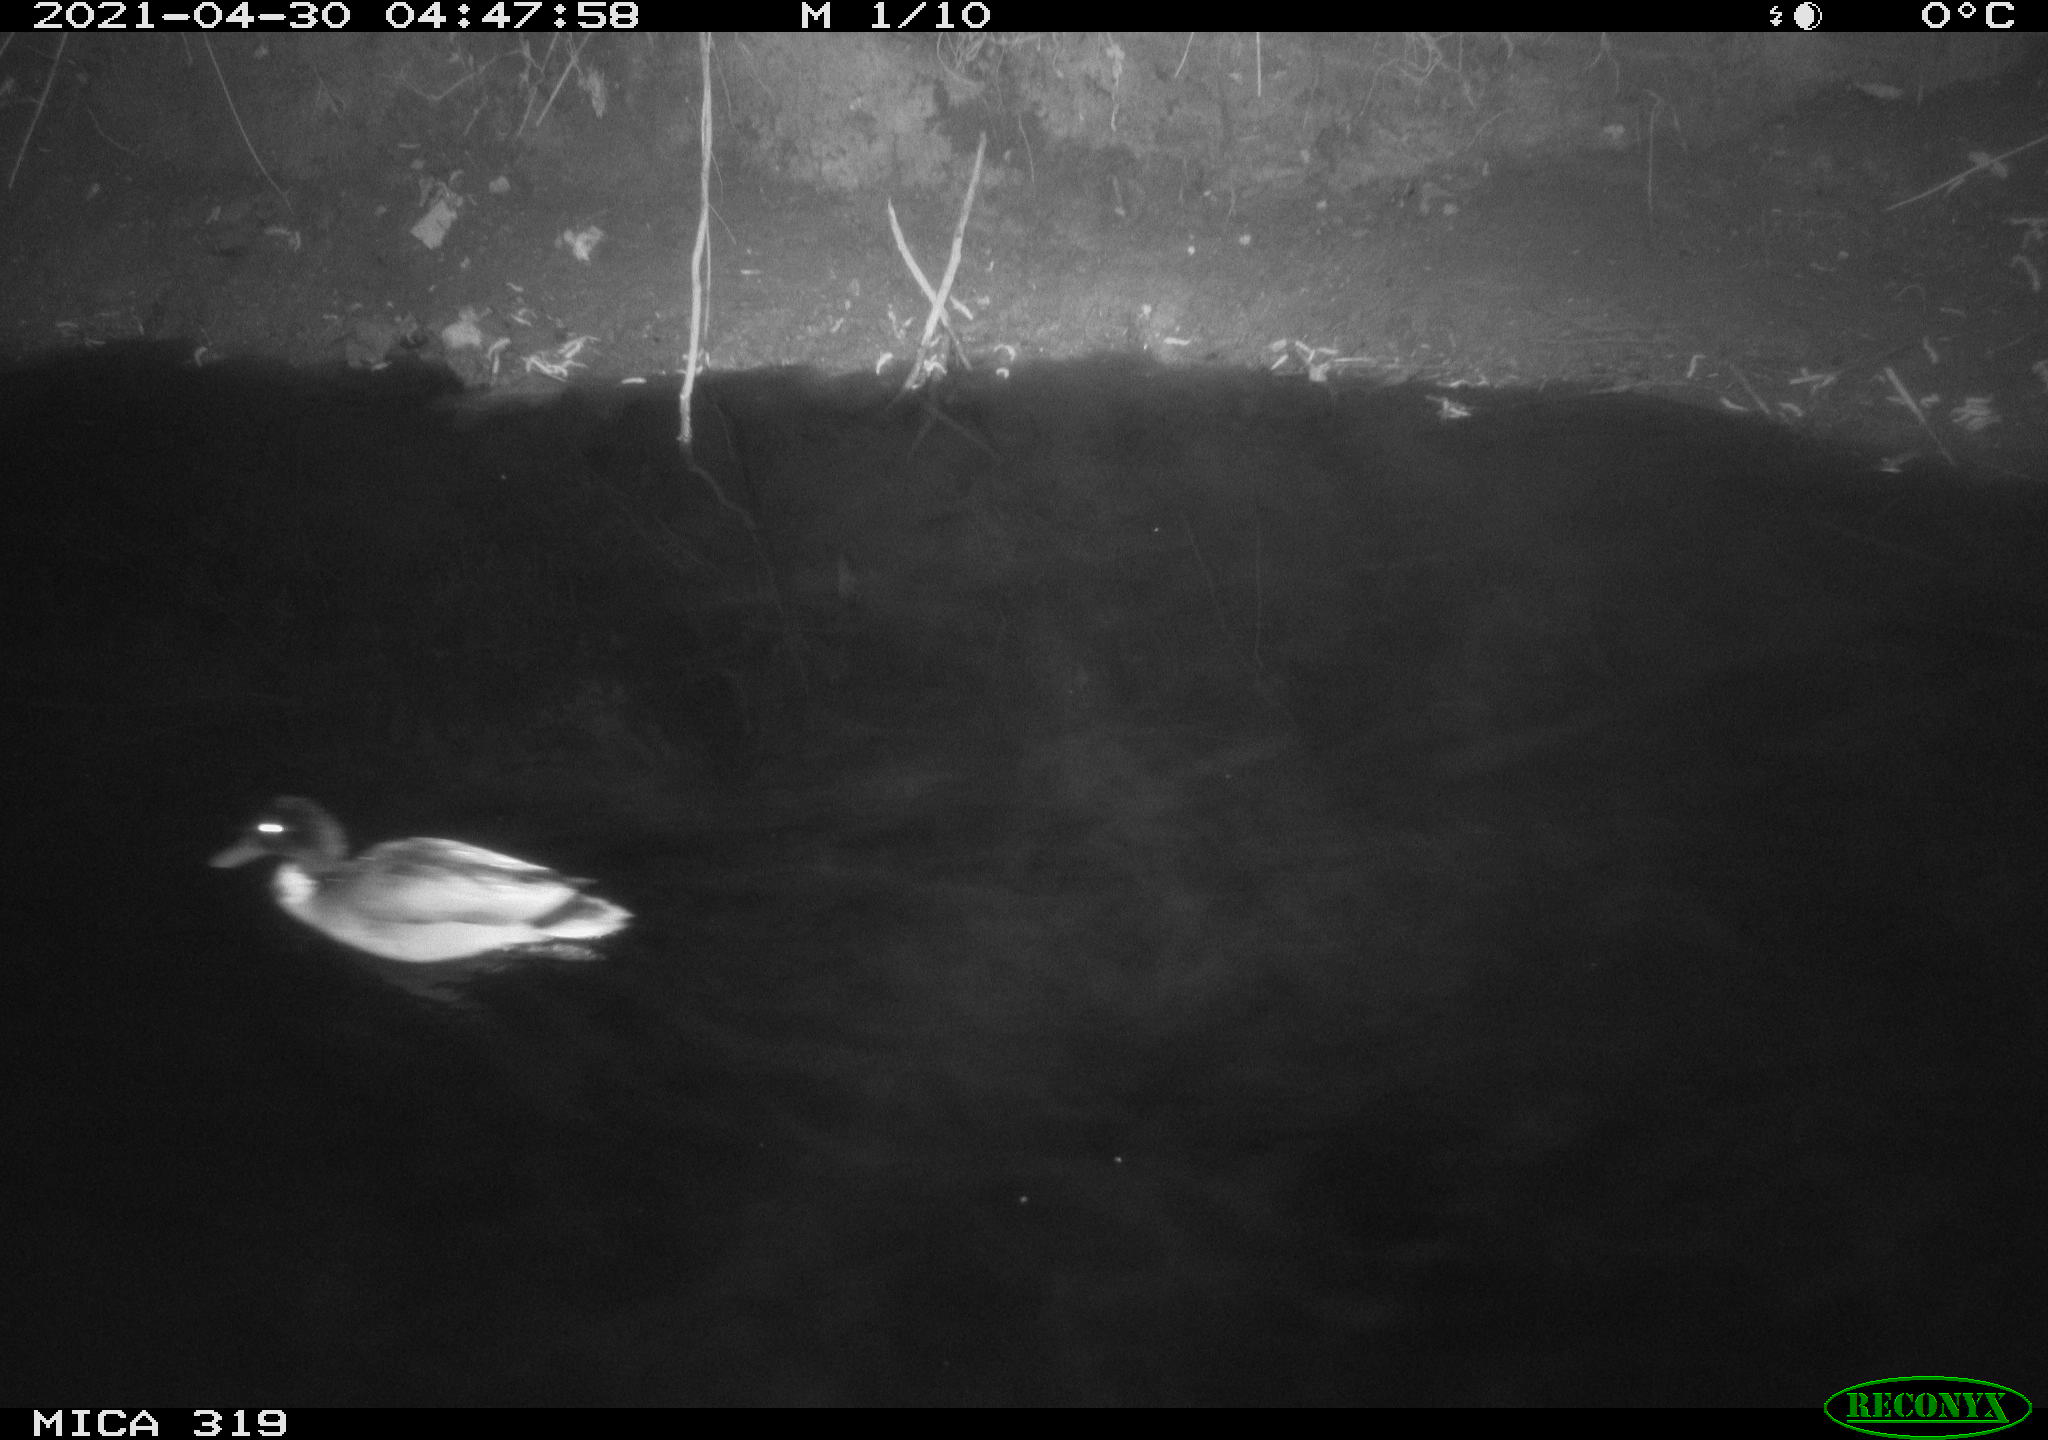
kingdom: Animalia
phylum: Chordata
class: Aves
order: Anseriformes
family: Anatidae
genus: Anas
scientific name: Anas platyrhynchos
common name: Mallard
